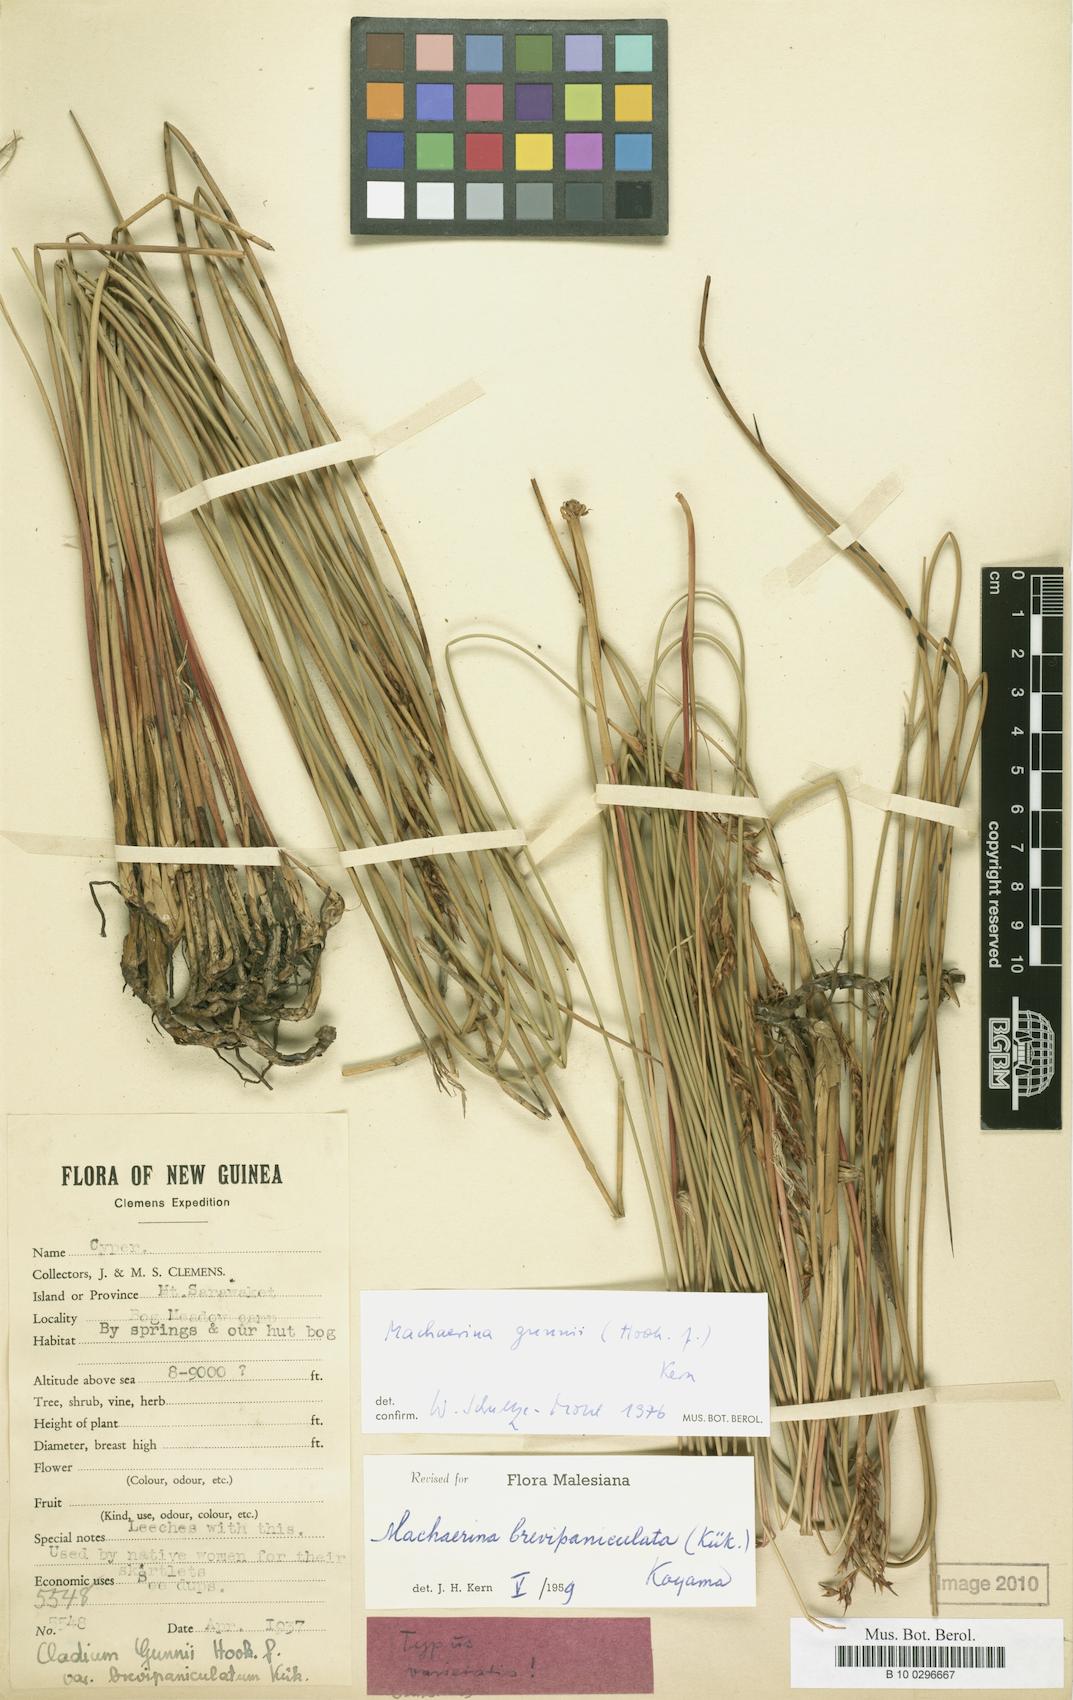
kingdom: Plantae
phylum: Tracheophyta
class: Liliopsida
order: Poales
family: Cyperaceae
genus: Machaerina
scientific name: Machaerina gunnii
